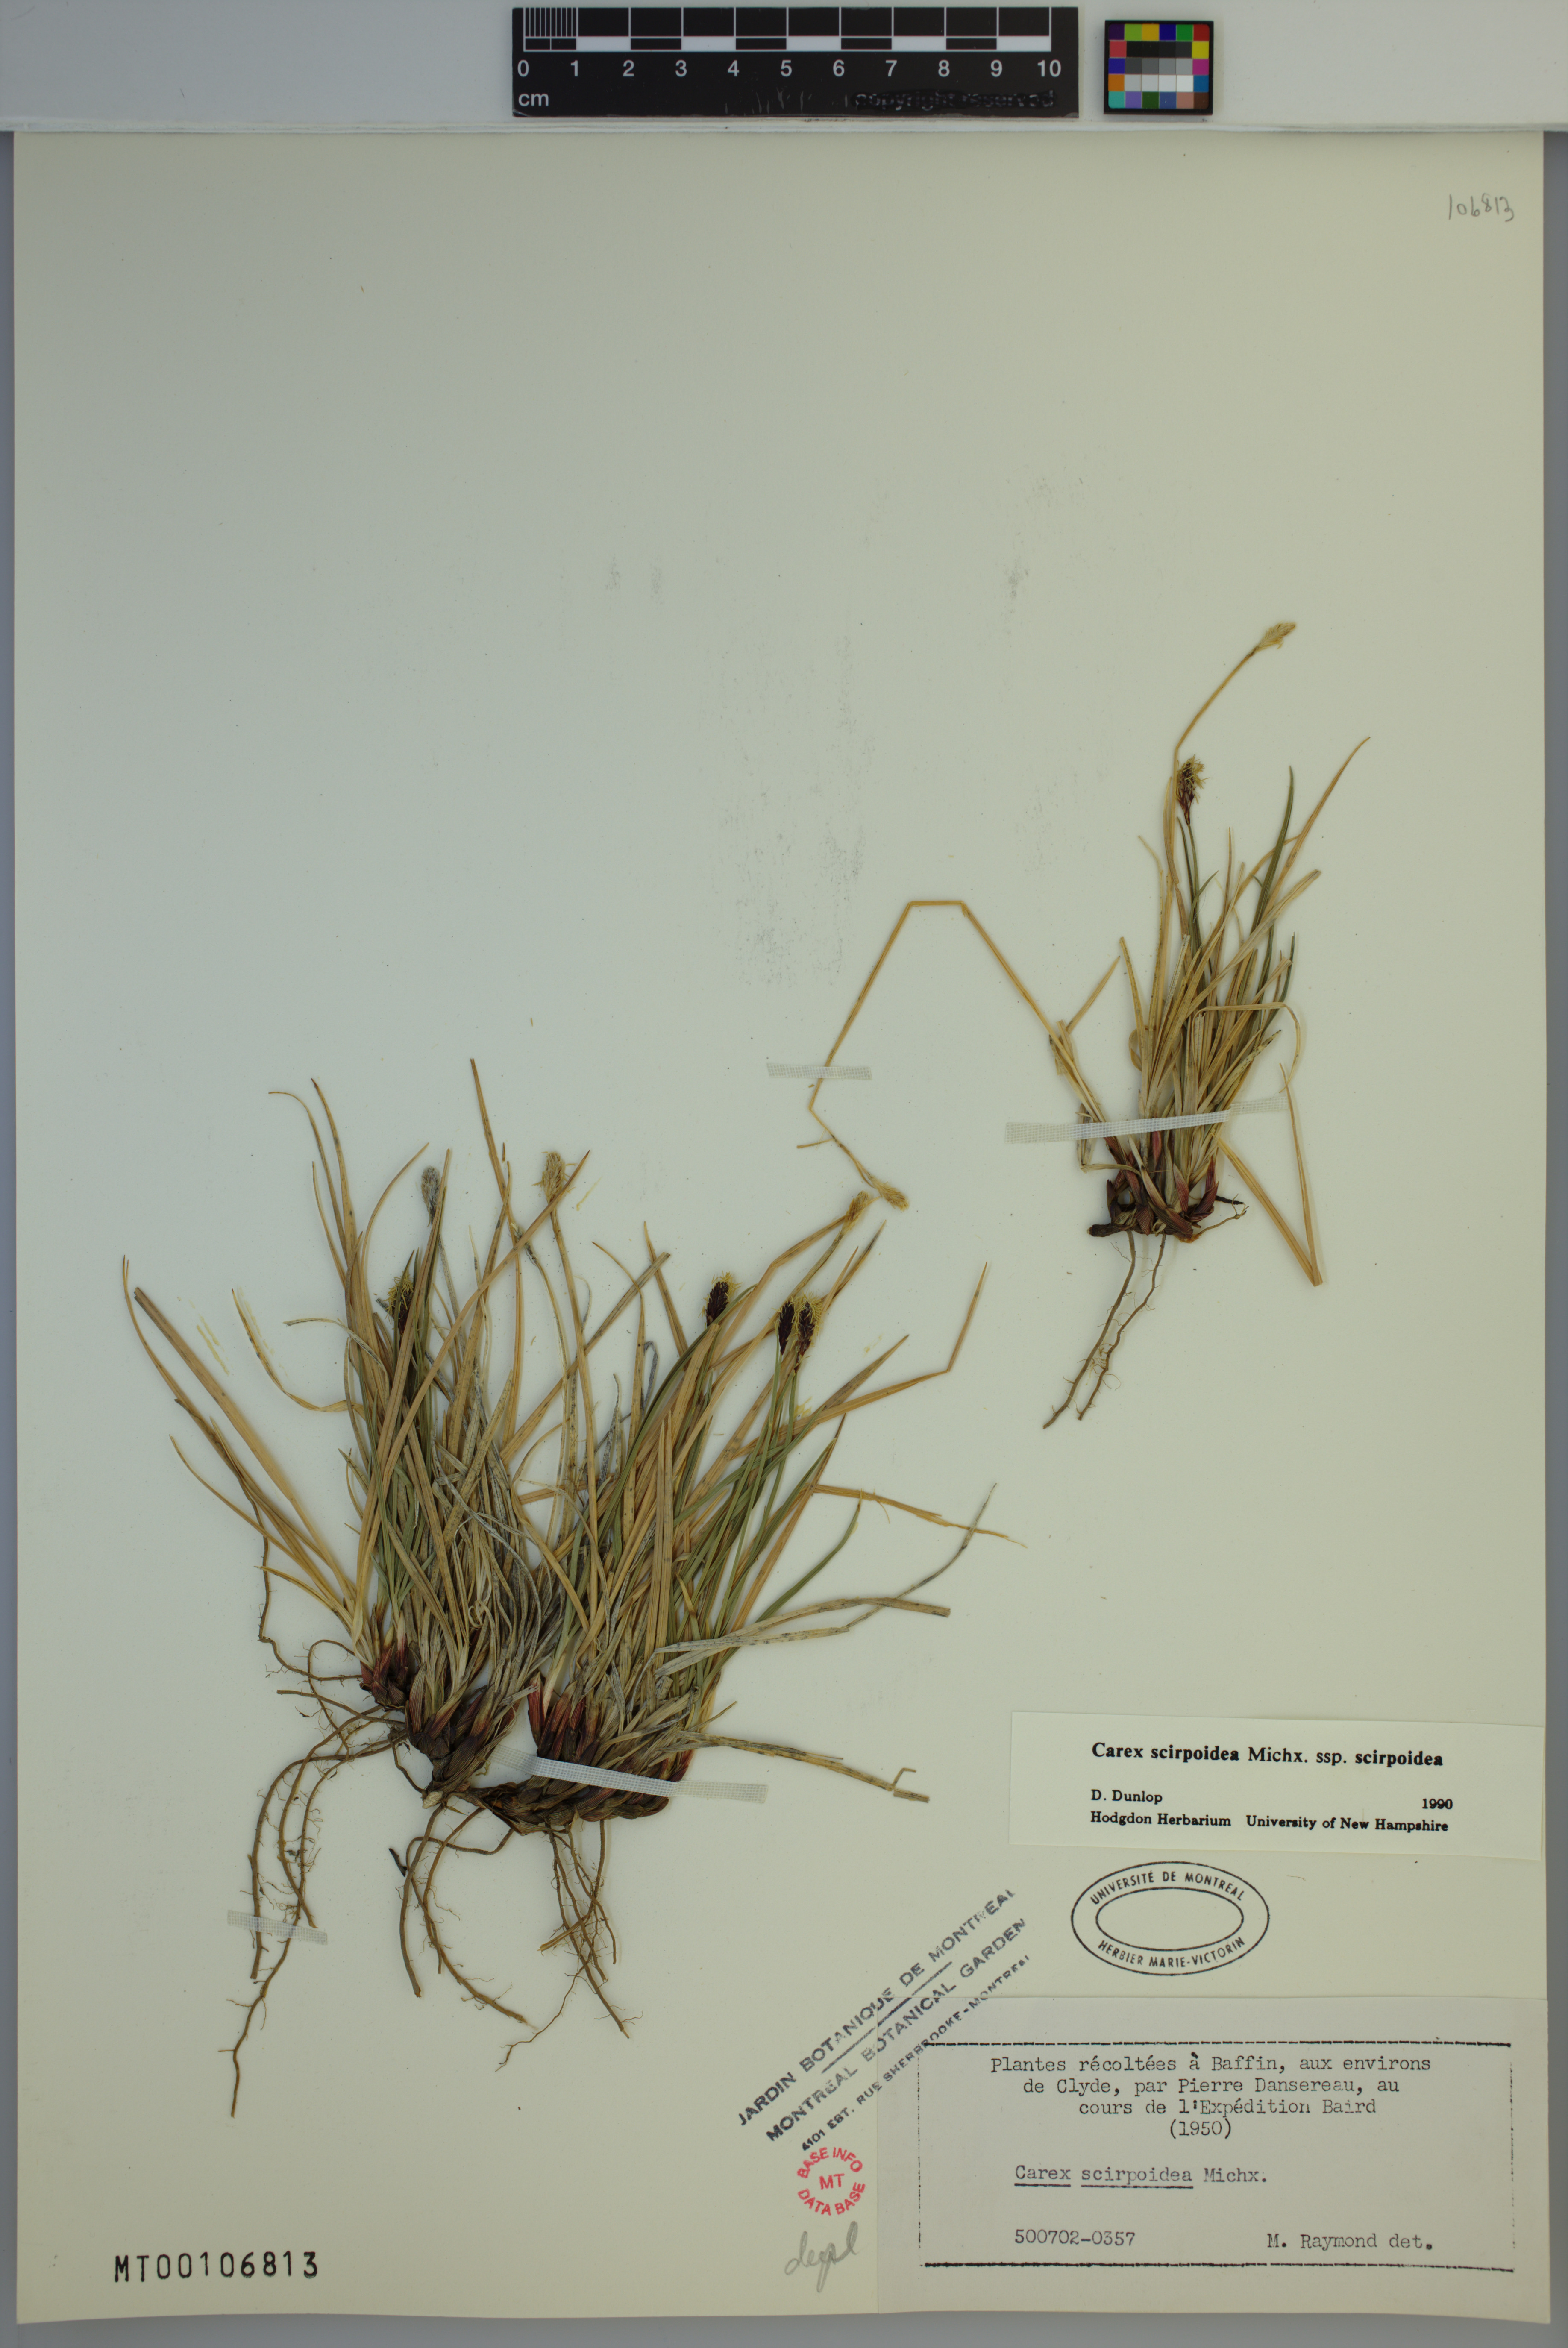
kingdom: Plantae
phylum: Tracheophyta
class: Liliopsida
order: Poales
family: Cyperaceae
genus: Carex
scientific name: Carex scirpoidea
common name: Canada single-spike sedge
